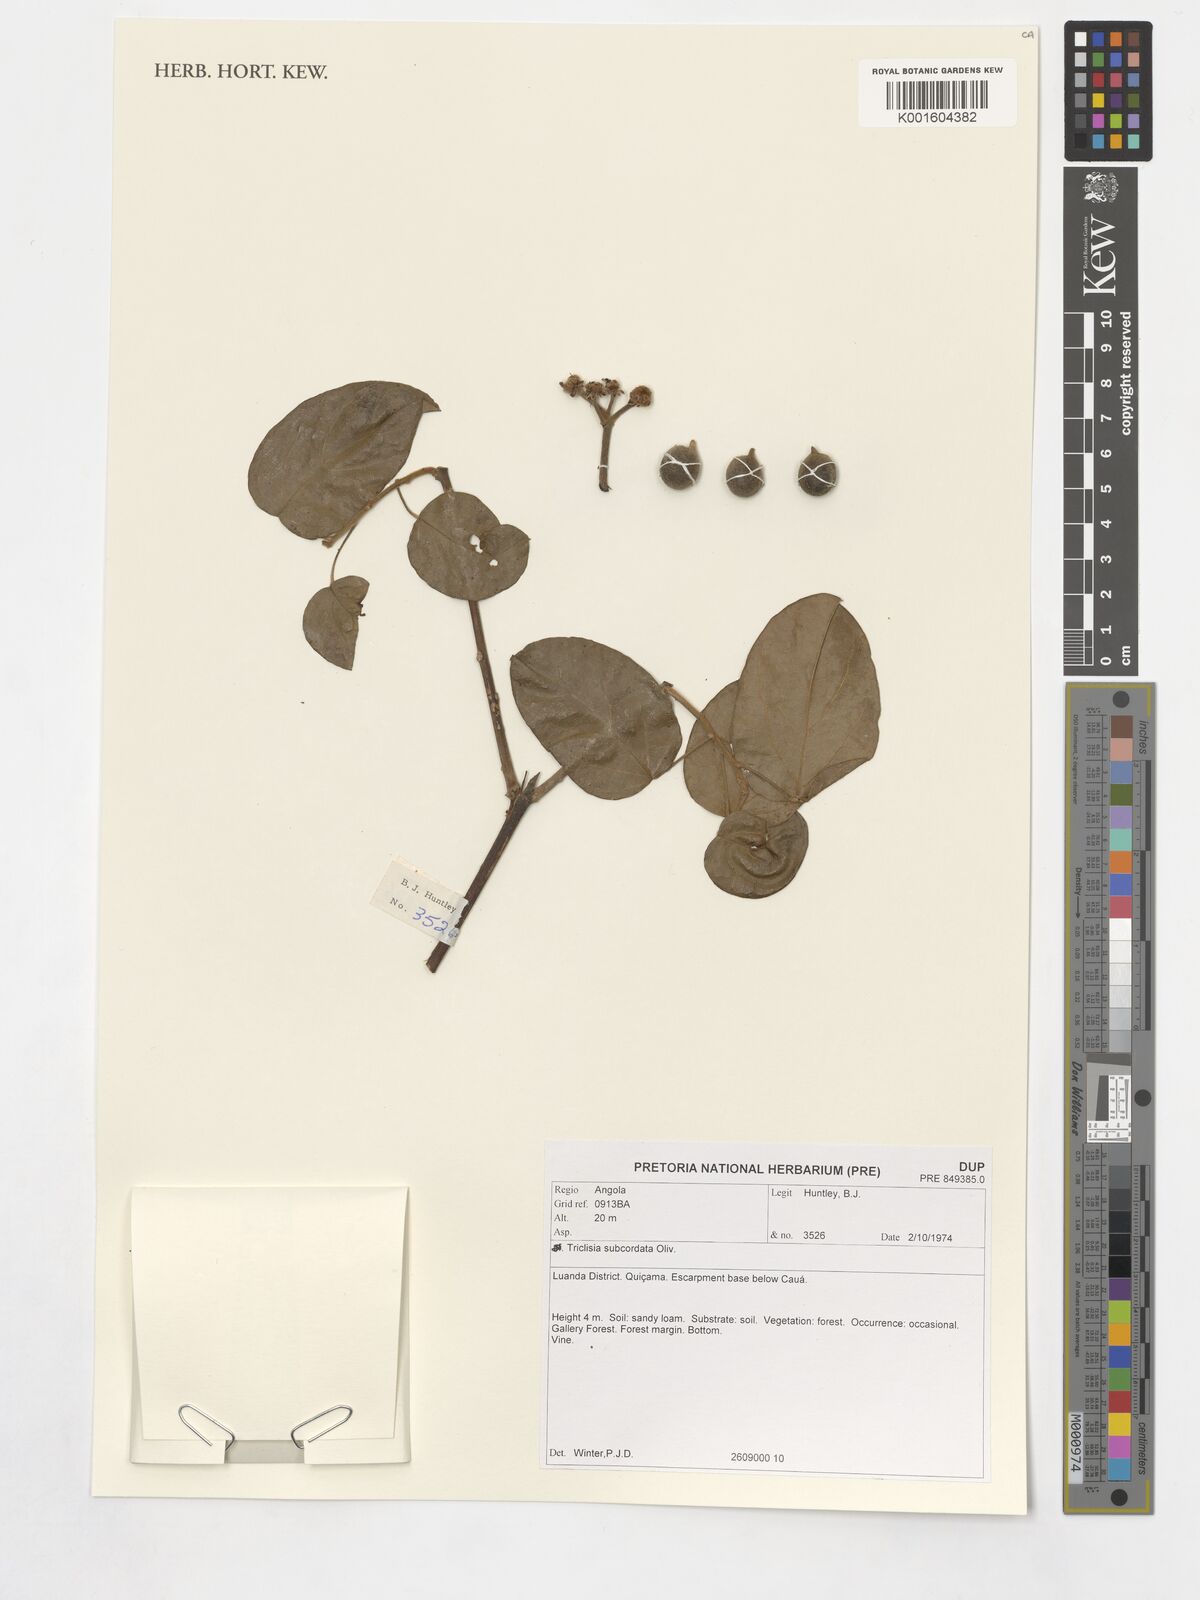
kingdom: Plantae
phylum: Tracheophyta
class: Magnoliopsida
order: Ranunculales
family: Menispermaceae
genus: Triclisia
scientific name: Triclisia subcordata
